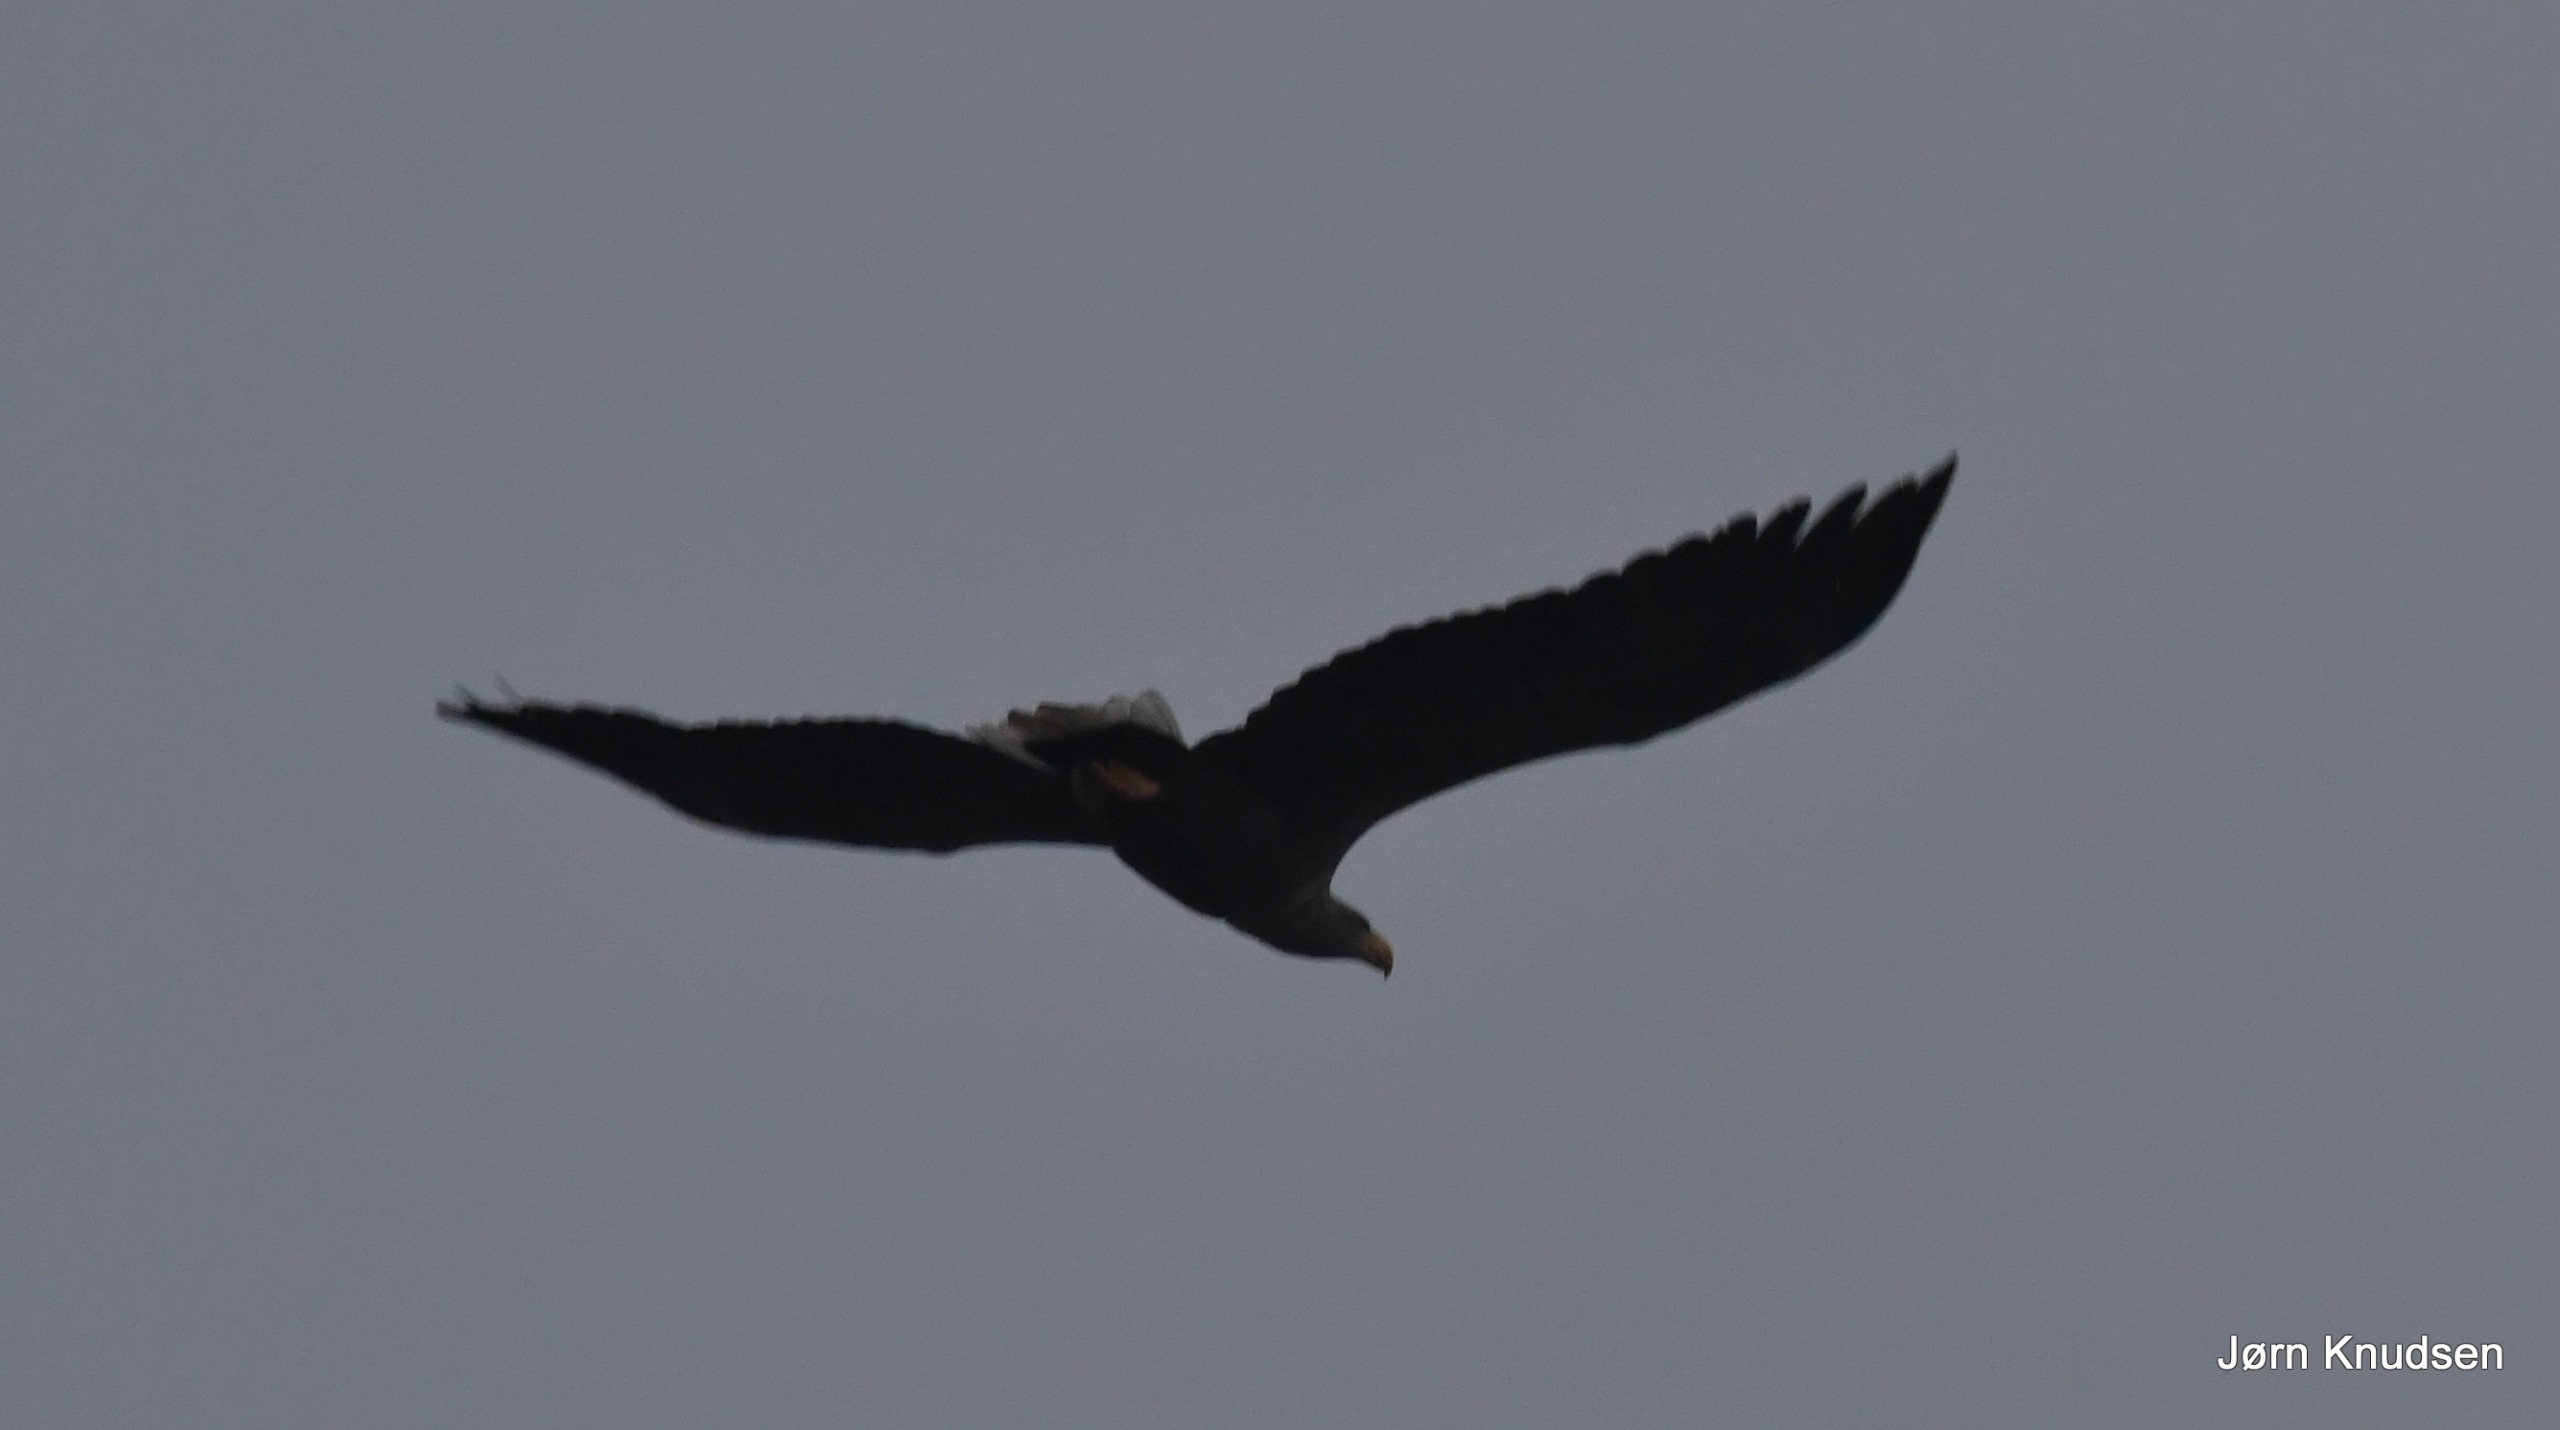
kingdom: Animalia
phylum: Chordata
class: Aves
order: Accipitriformes
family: Accipitridae
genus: Haliaeetus
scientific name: Haliaeetus albicilla
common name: Havørn
